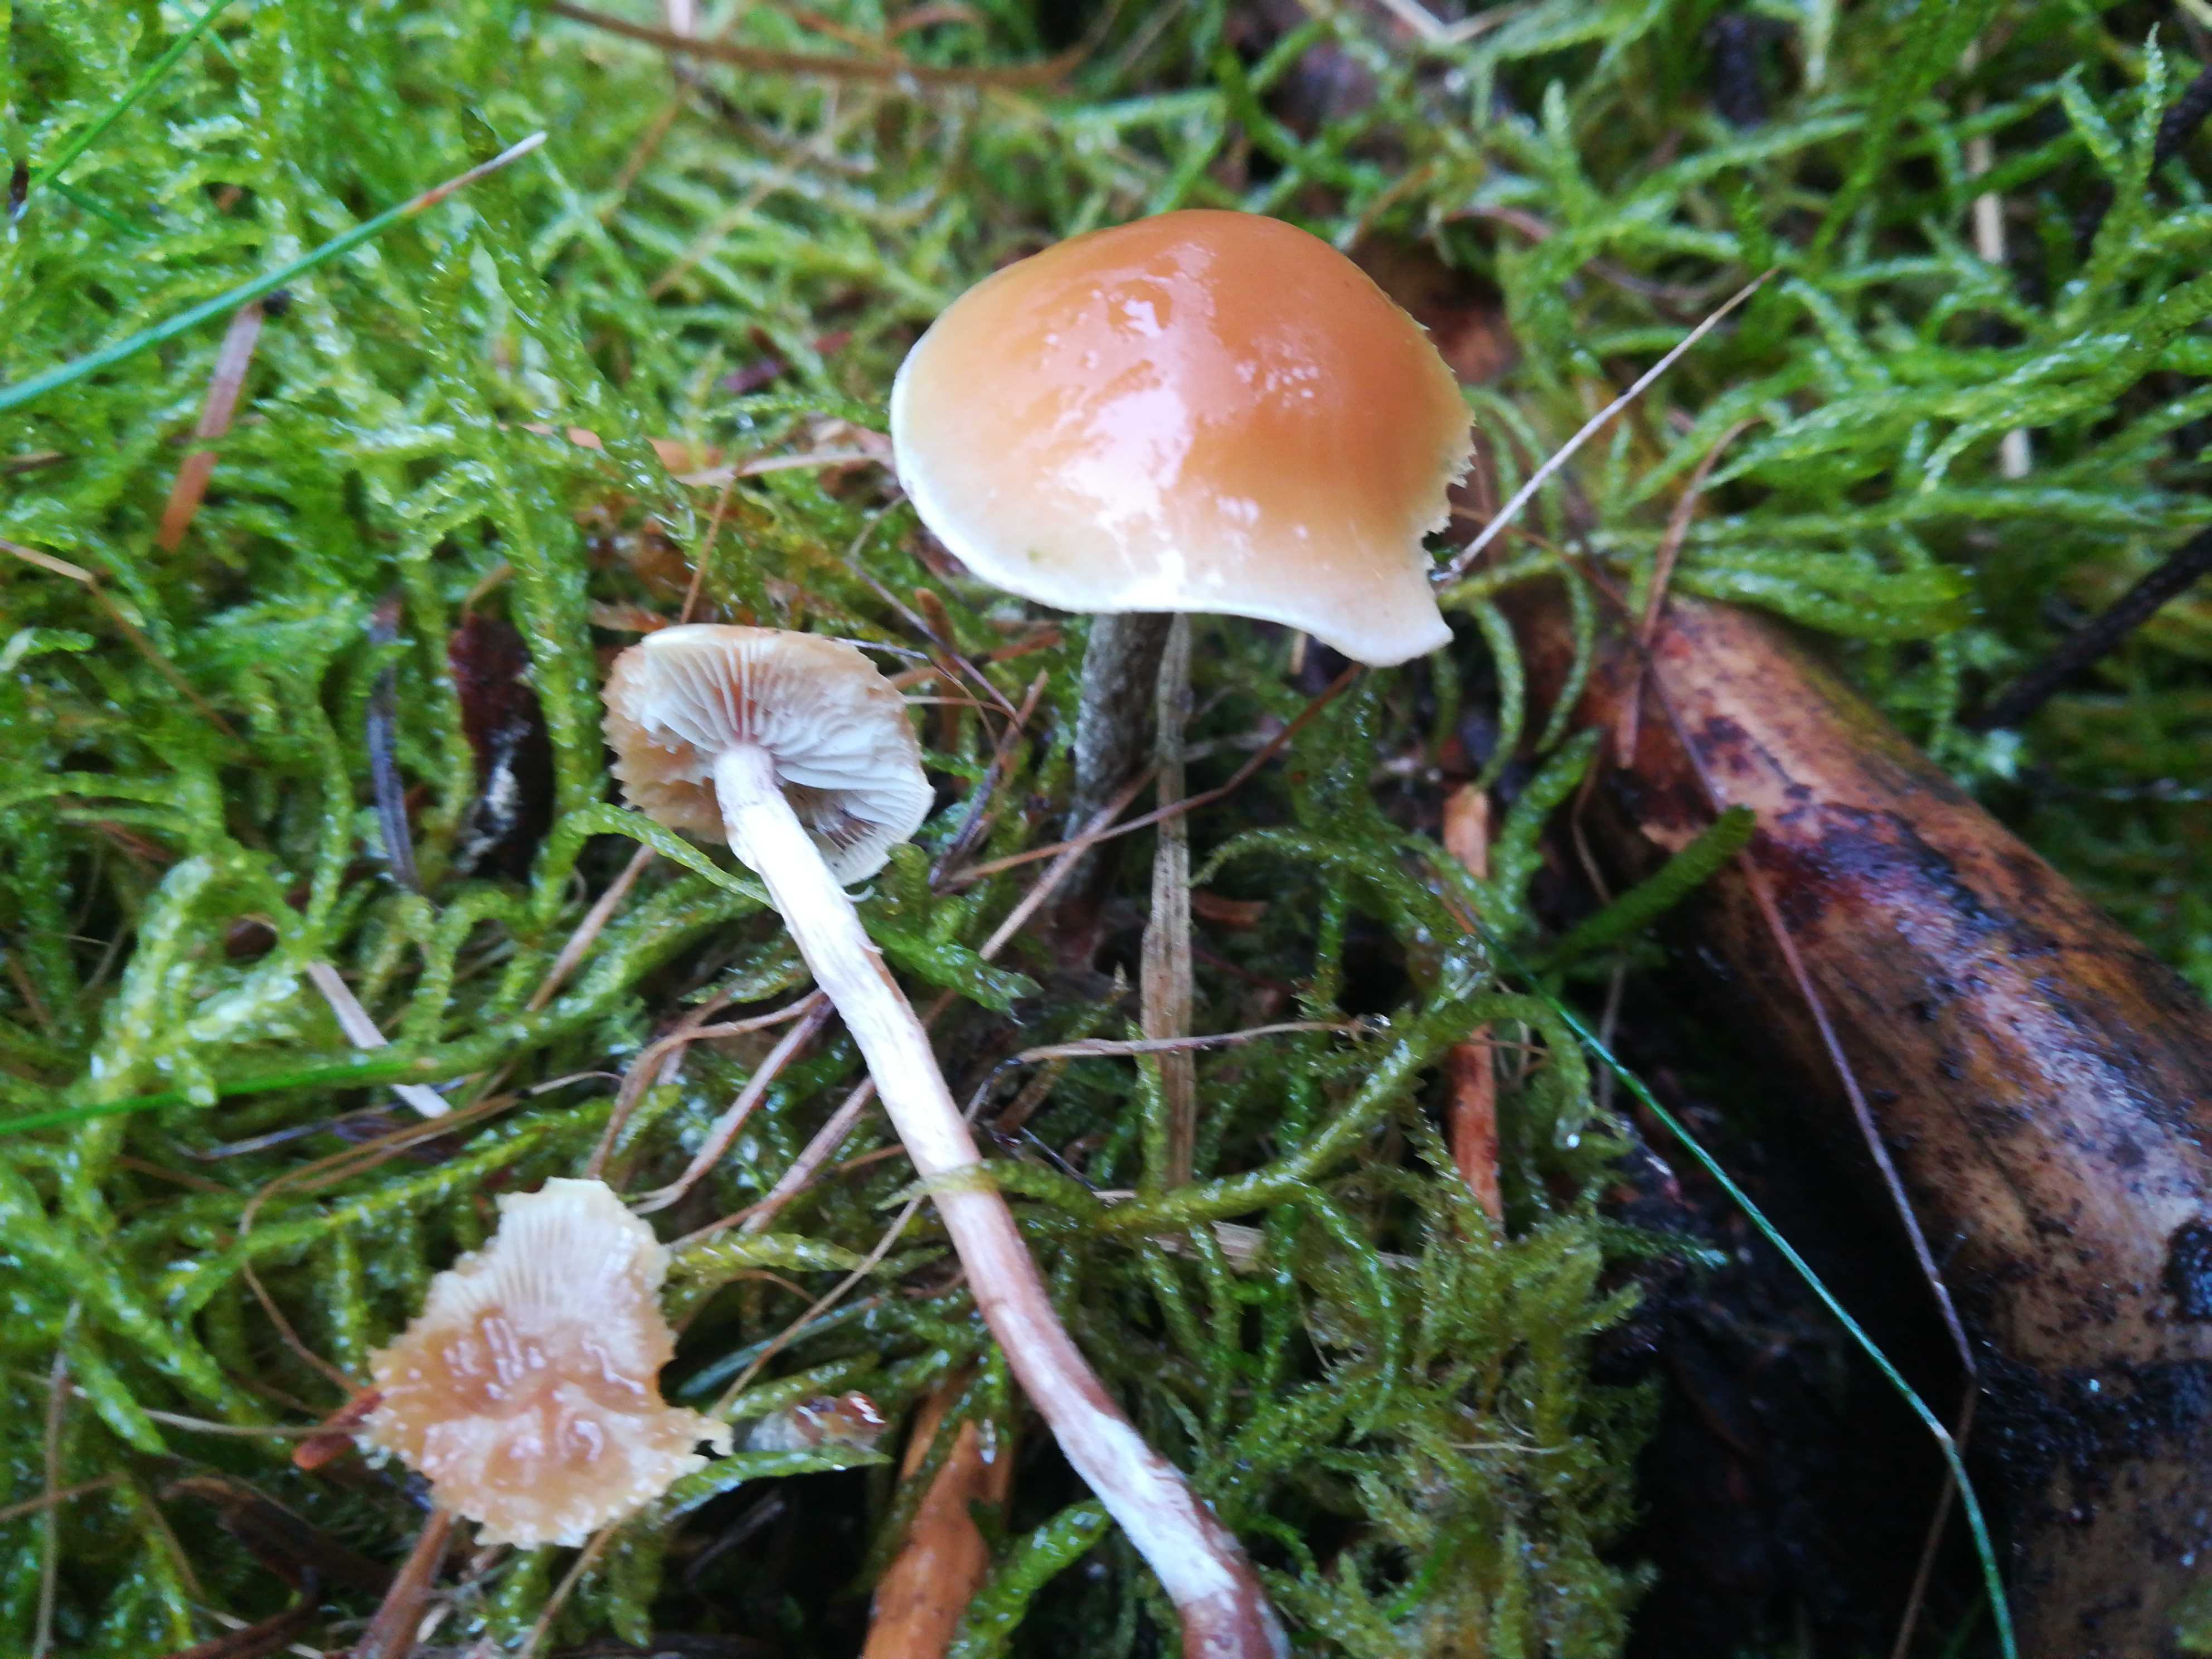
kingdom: Fungi
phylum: Basidiomycota
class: Agaricomycetes
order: Agaricales
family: Strophariaceae
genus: Hypholoma
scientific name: Hypholoma marginatum
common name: enlig svovlhat
